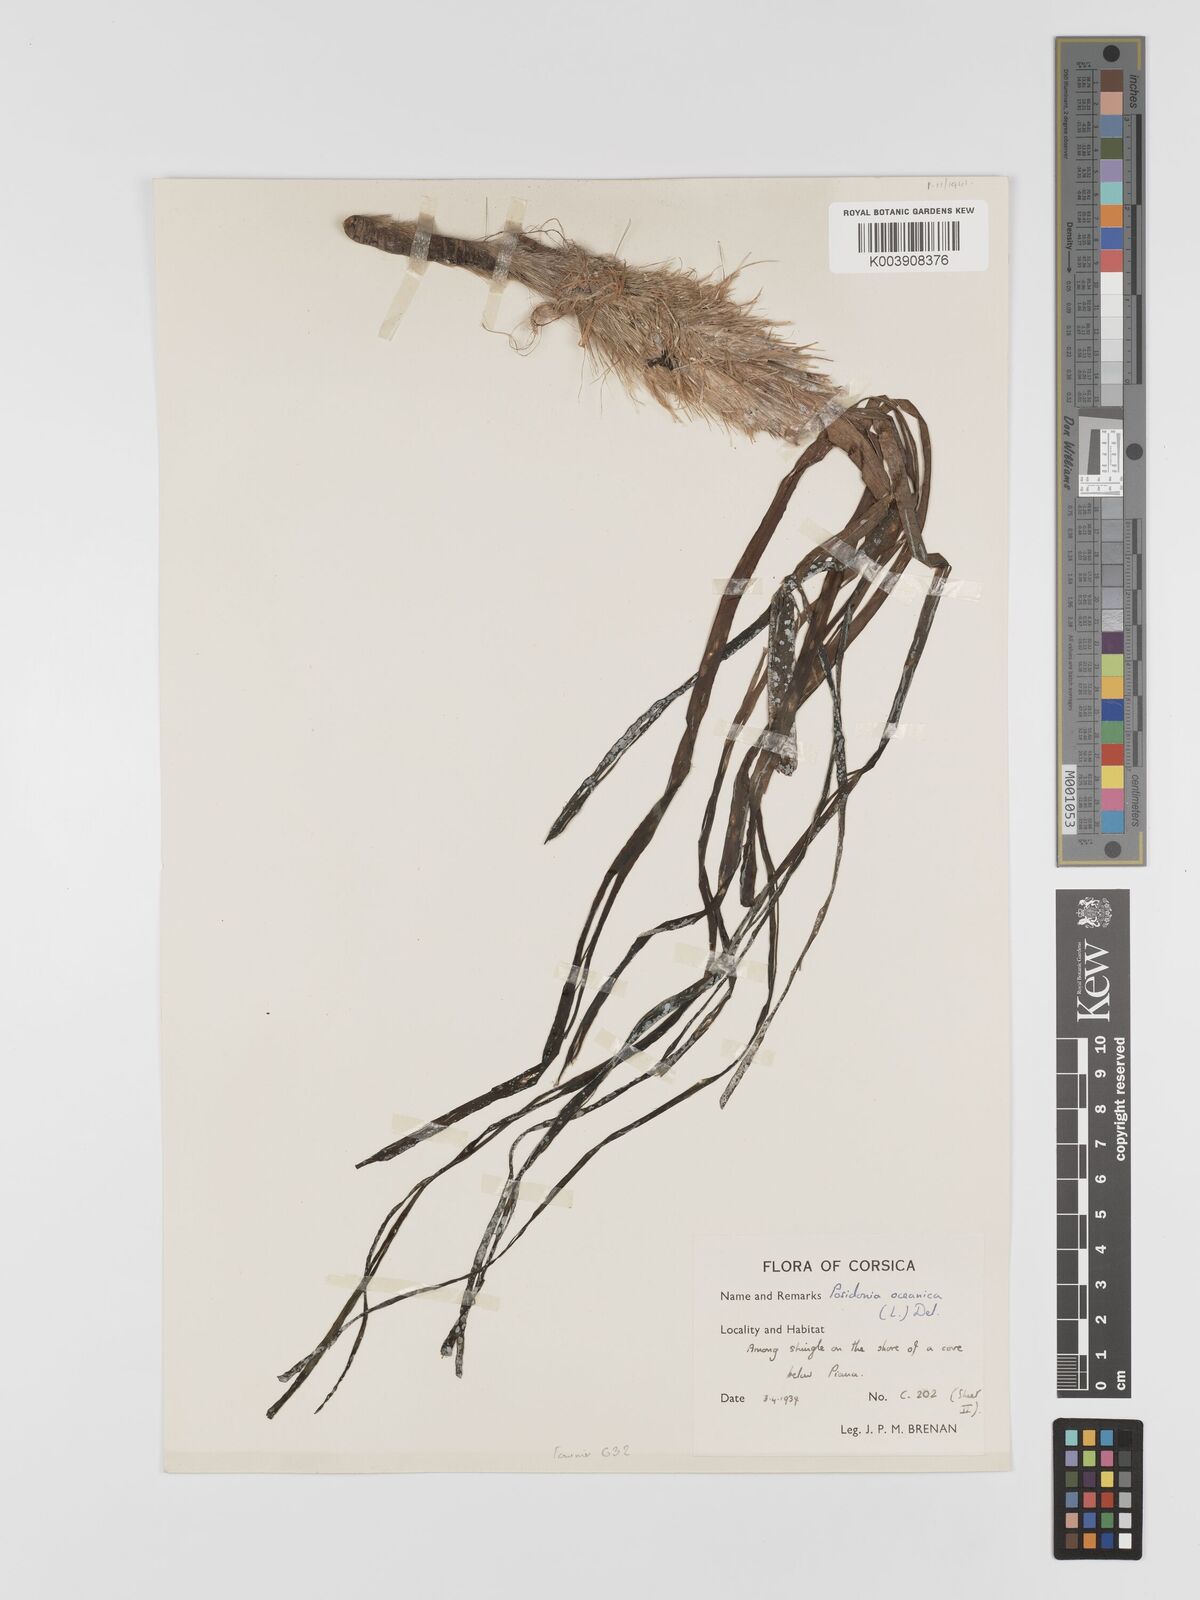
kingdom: Plantae
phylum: Tracheophyta
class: Liliopsida
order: Alismatales
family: Posidoniaceae
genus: Posidonia
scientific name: Posidonia
